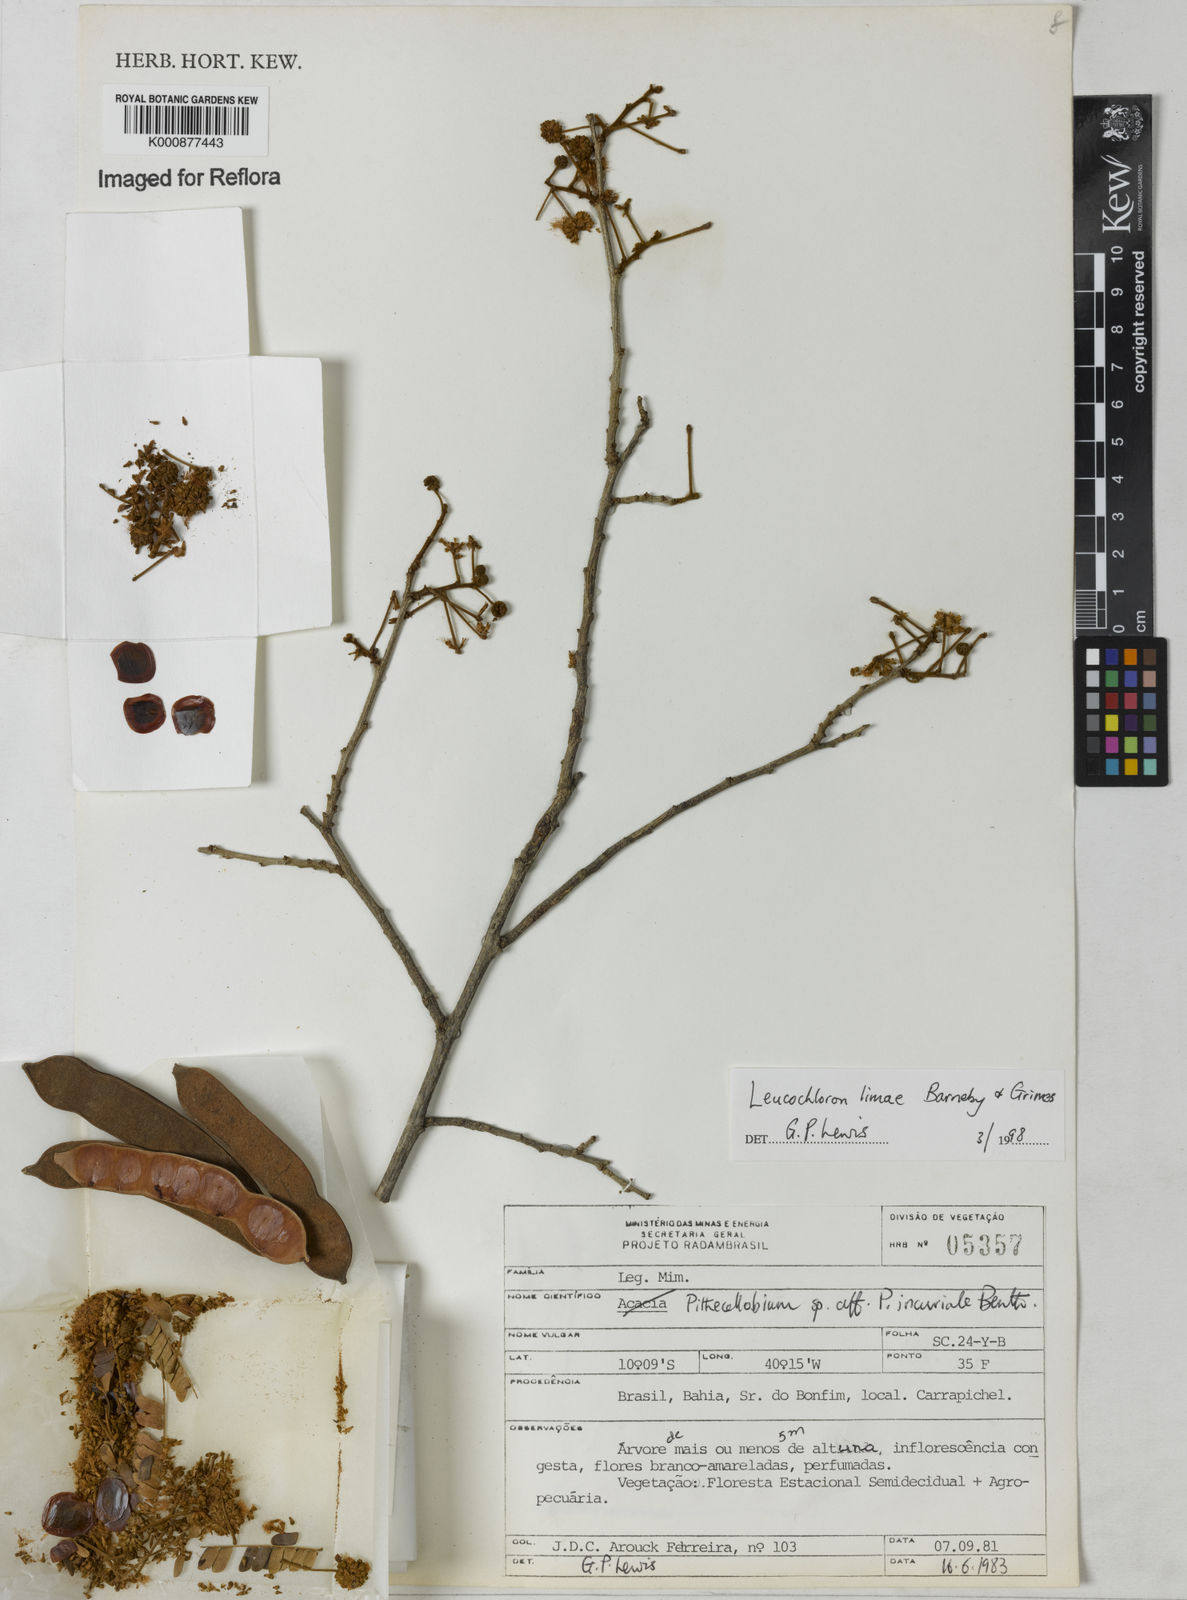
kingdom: Plantae
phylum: Tracheophyta
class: Magnoliopsida
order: Fabales
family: Fabaceae
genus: Leucochloron
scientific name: Leucochloron limae
